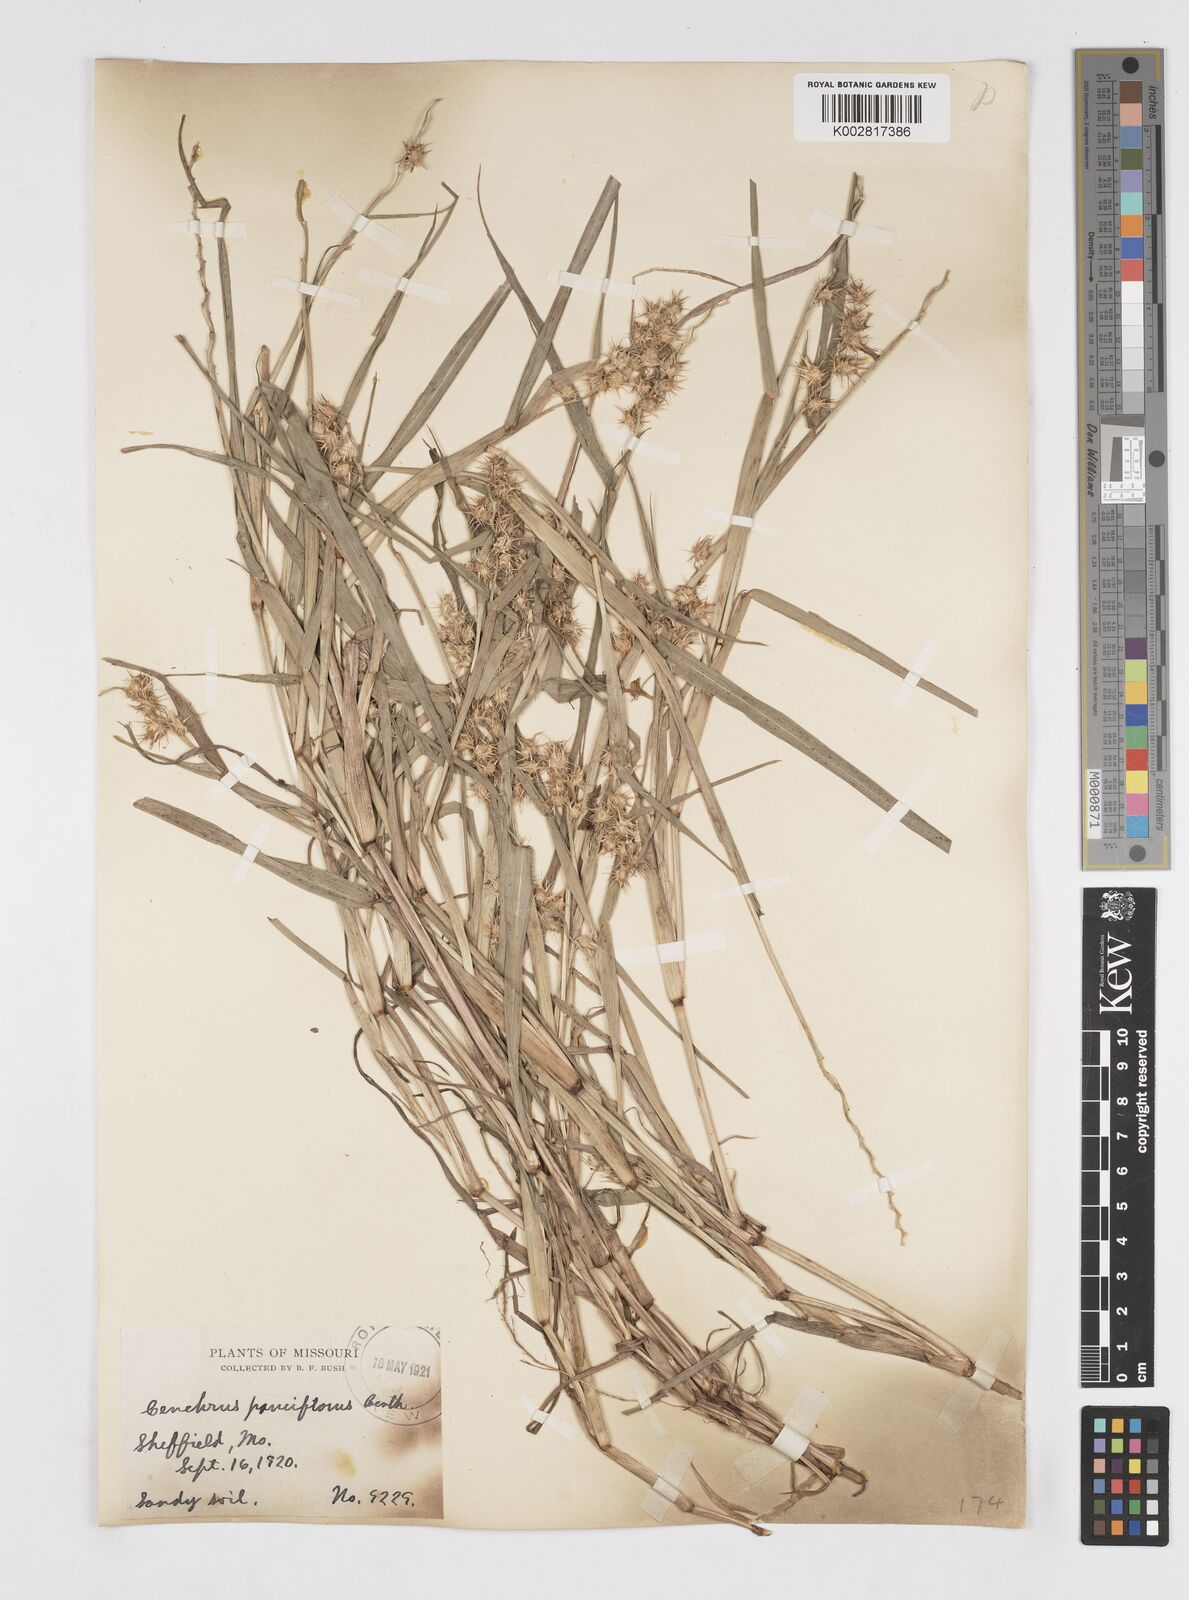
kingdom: Plantae
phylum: Tracheophyta
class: Liliopsida
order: Poales
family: Poaceae
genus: Cenchrus
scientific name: Cenchrus longispinus
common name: Mat sandbur
